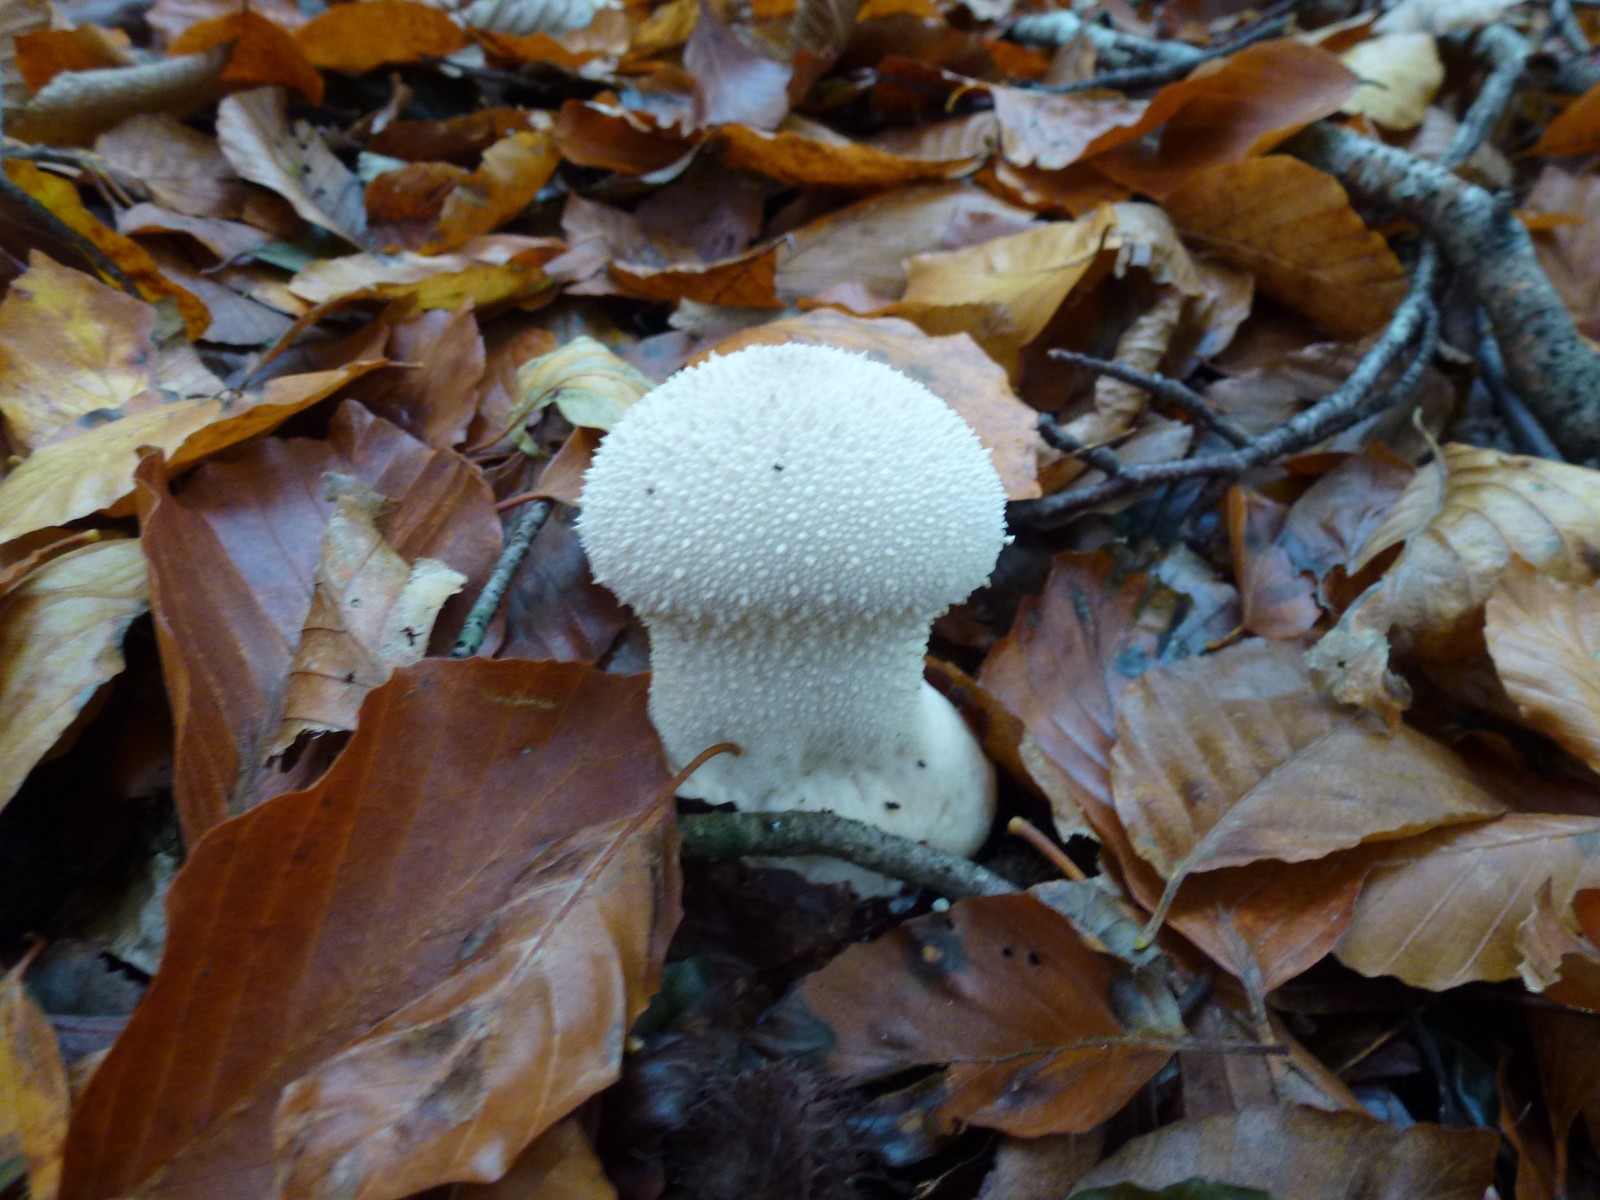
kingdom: Fungi
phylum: Basidiomycota
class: Agaricomycetes
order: Agaricales
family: Lycoperdaceae
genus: Lycoperdon
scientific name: Lycoperdon perlatum
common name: krystal-støvbold
